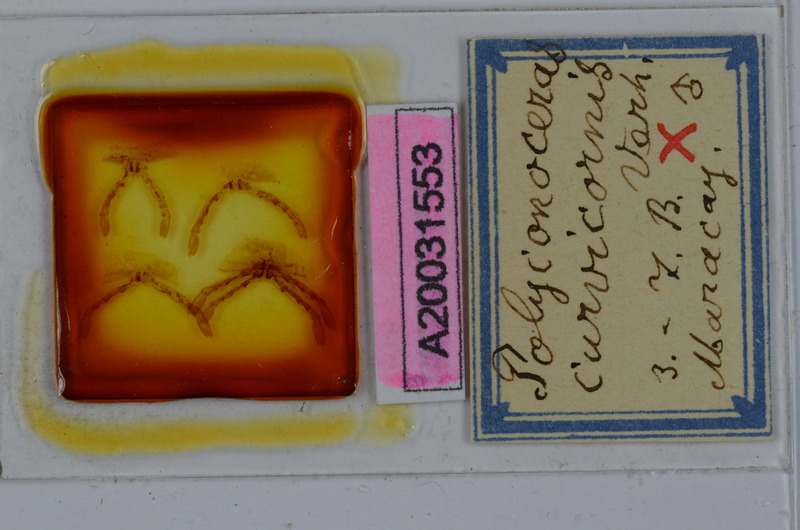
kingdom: Animalia
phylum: Arthropoda
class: Diplopoda
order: Spirobolida
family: Rhinocricidae
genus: Salpidobolus
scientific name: Salpidobolus curvicornis
